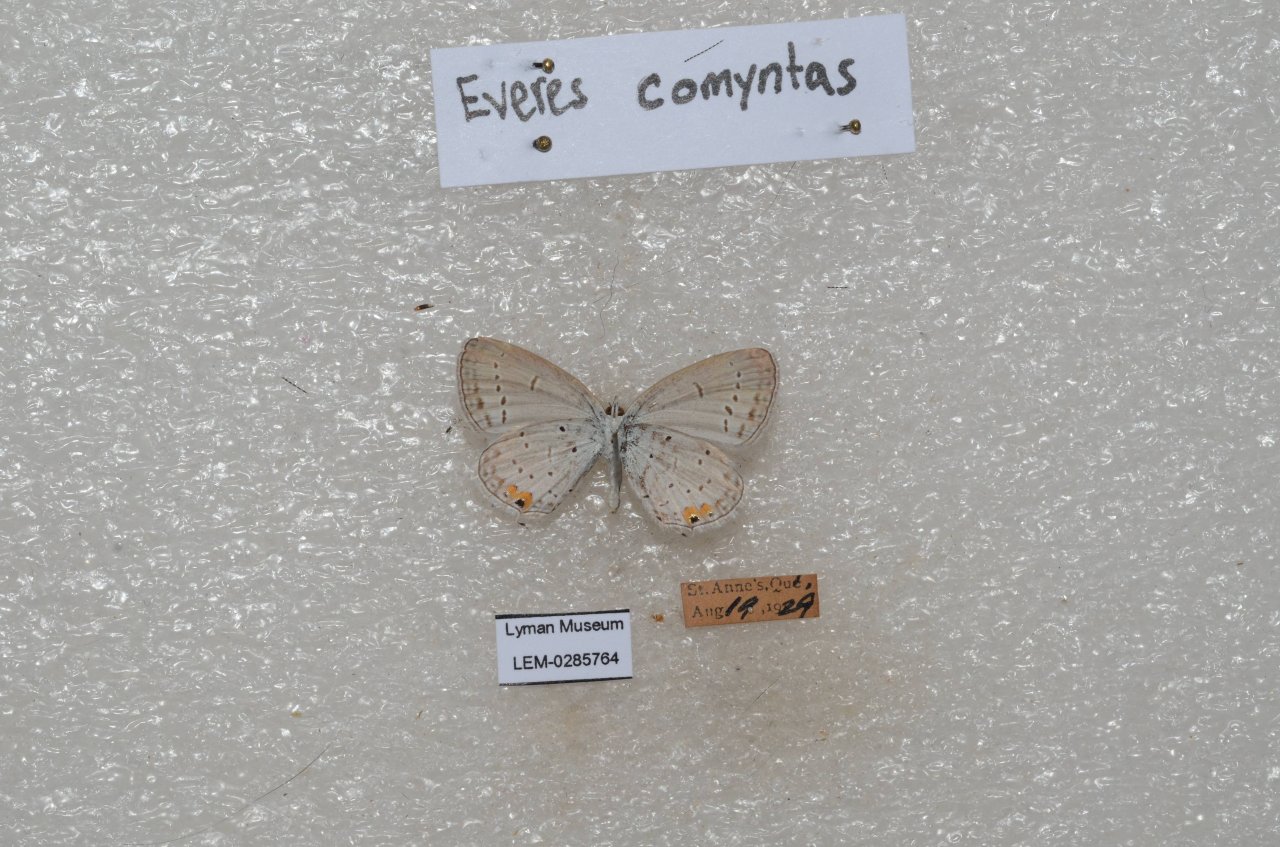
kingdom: Animalia
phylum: Arthropoda
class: Insecta
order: Lepidoptera
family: Lycaenidae
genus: Elkalyce
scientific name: Elkalyce comyntas
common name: Eastern Tailed-Blue
